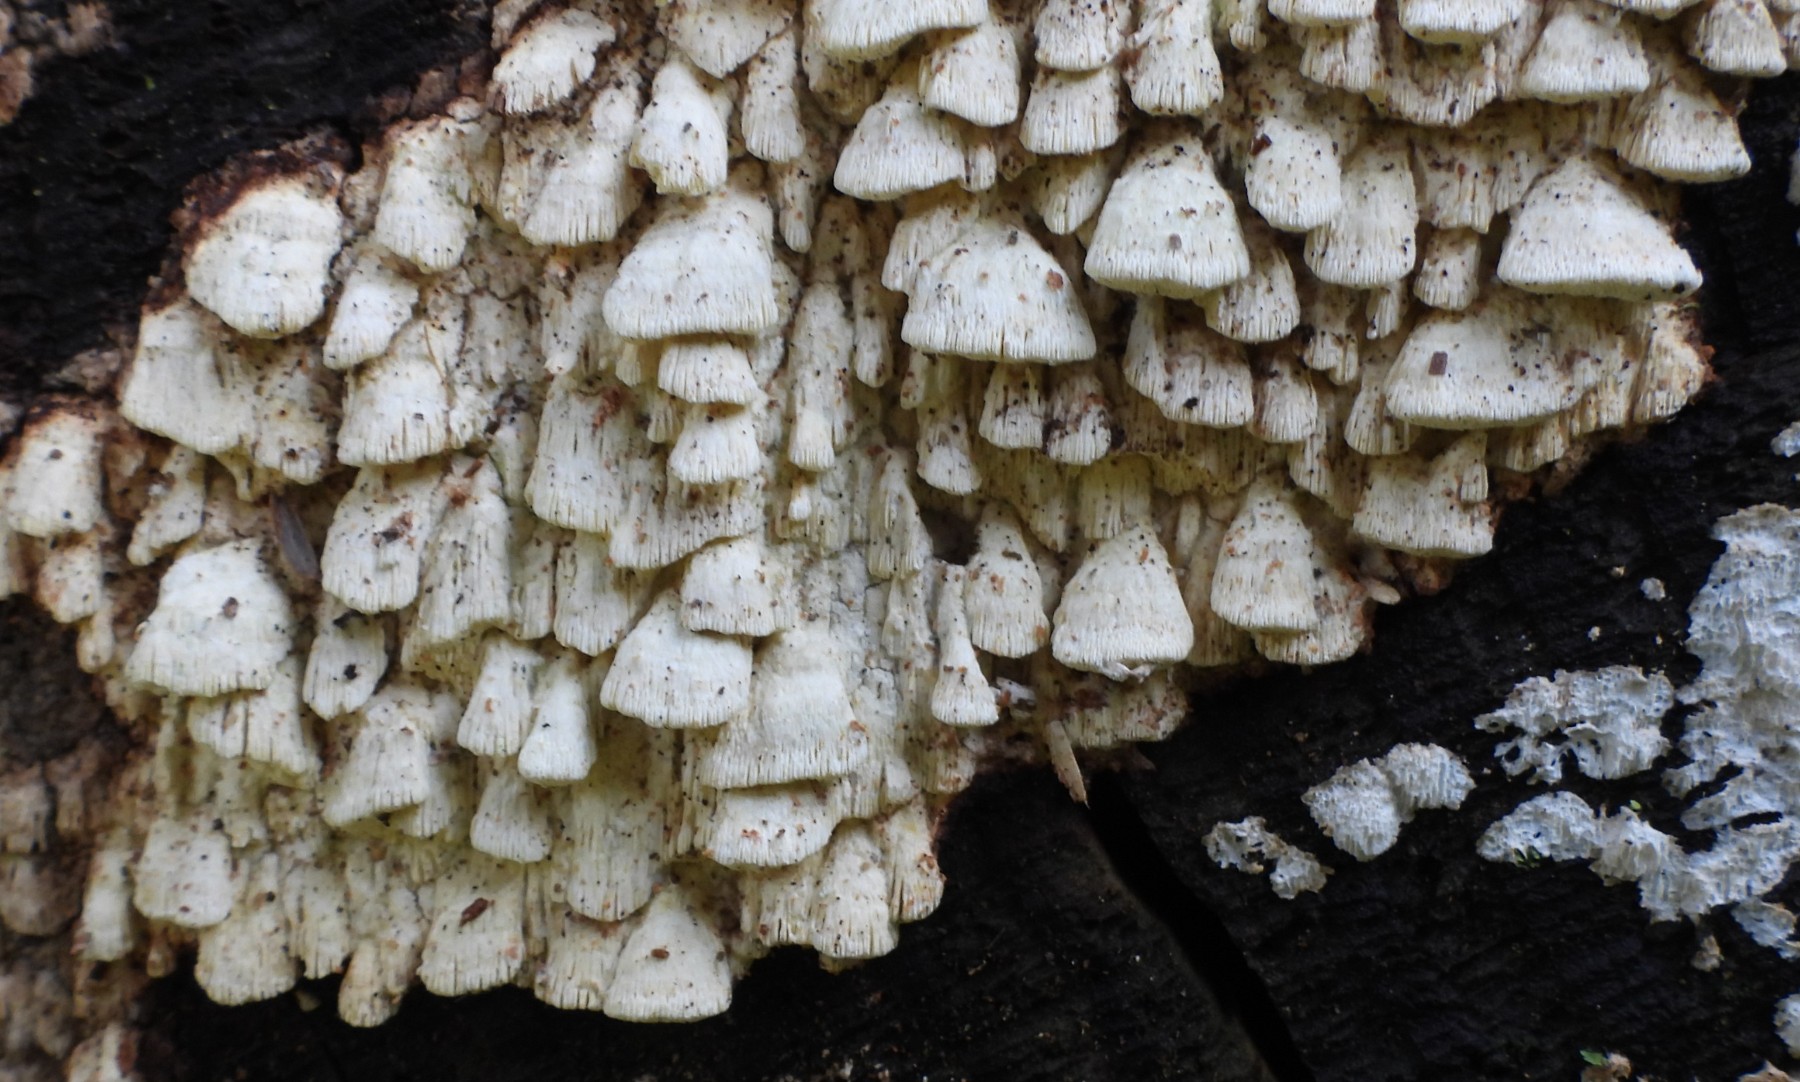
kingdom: Fungi
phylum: Basidiomycota
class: Agaricomycetes
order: Polyporales
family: Fomitopsidaceae
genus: Daedalea
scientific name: Daedalea xantha
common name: gul sejporesvamp
